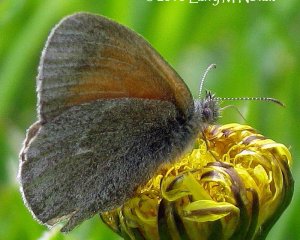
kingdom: Animalia
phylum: Arthropoda
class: Insecta
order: Lepidoptera
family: Nymphalidae
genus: Coenonympha
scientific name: Coenonympha tullia
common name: Large Heath
